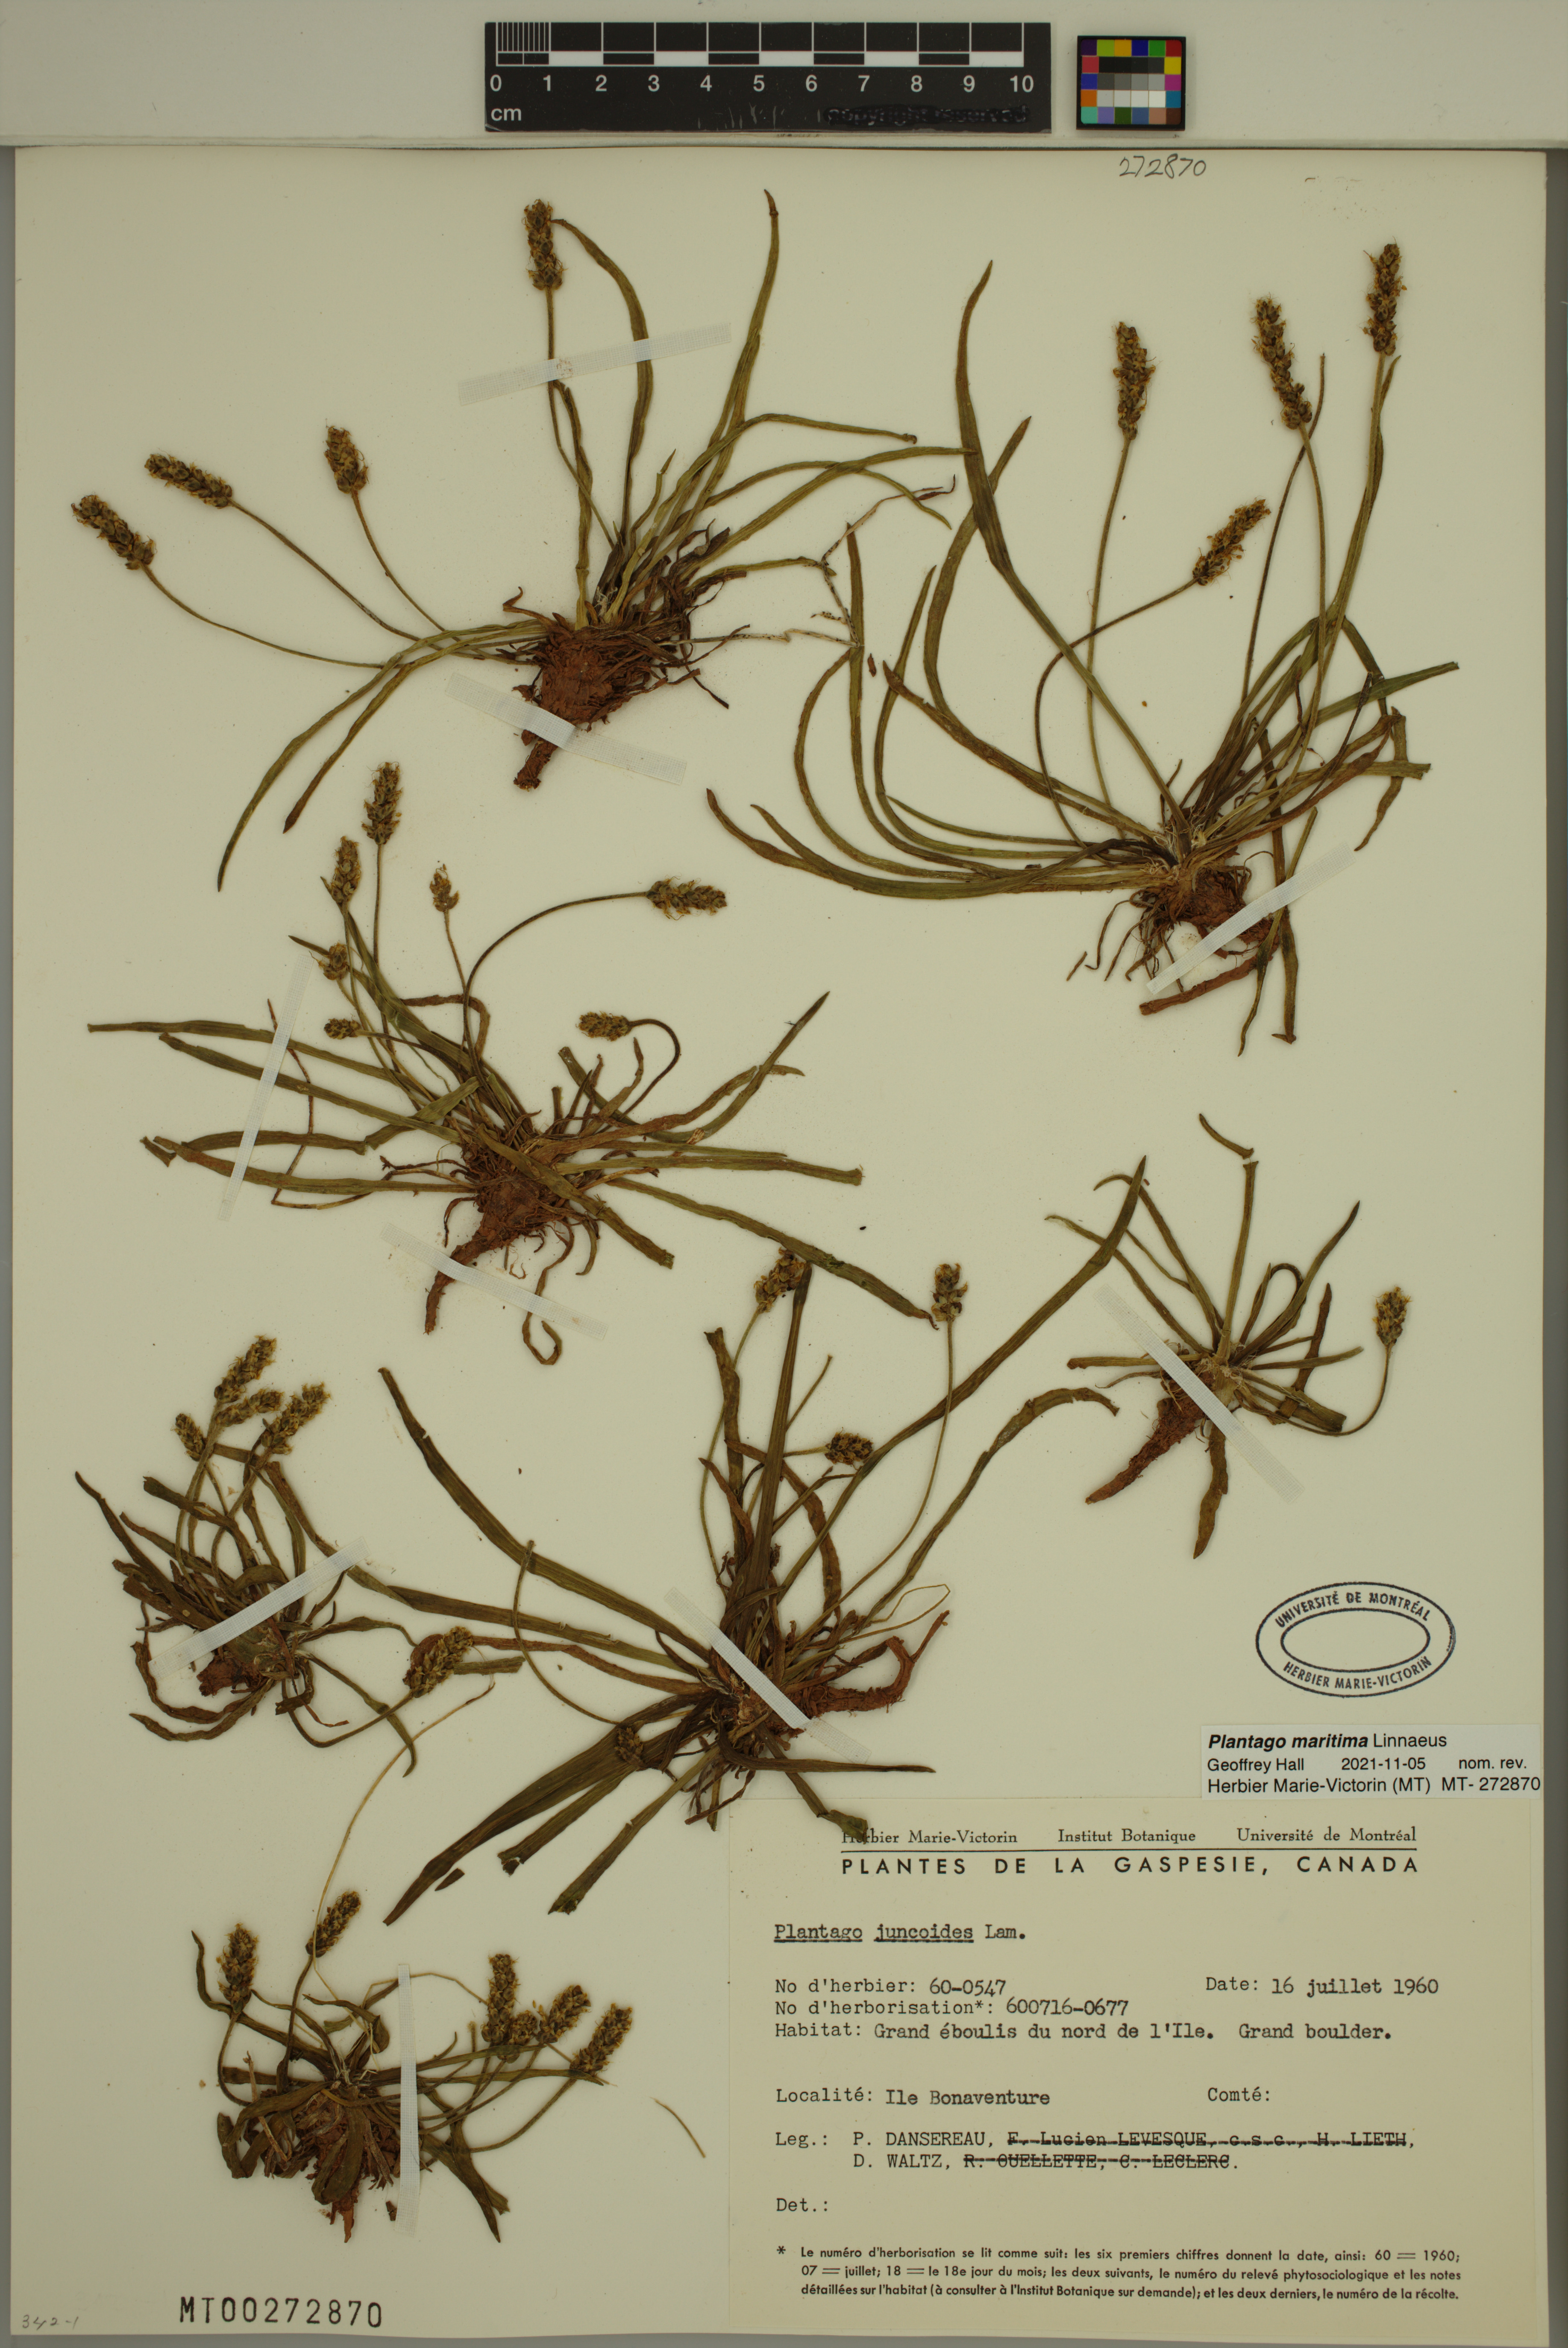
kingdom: Plantae
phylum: Tracheophyta
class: Magnoliopsida
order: Lamiales
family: Plantaginaceae
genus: Plantago
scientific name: Plantago maritima
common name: Sea plantain
